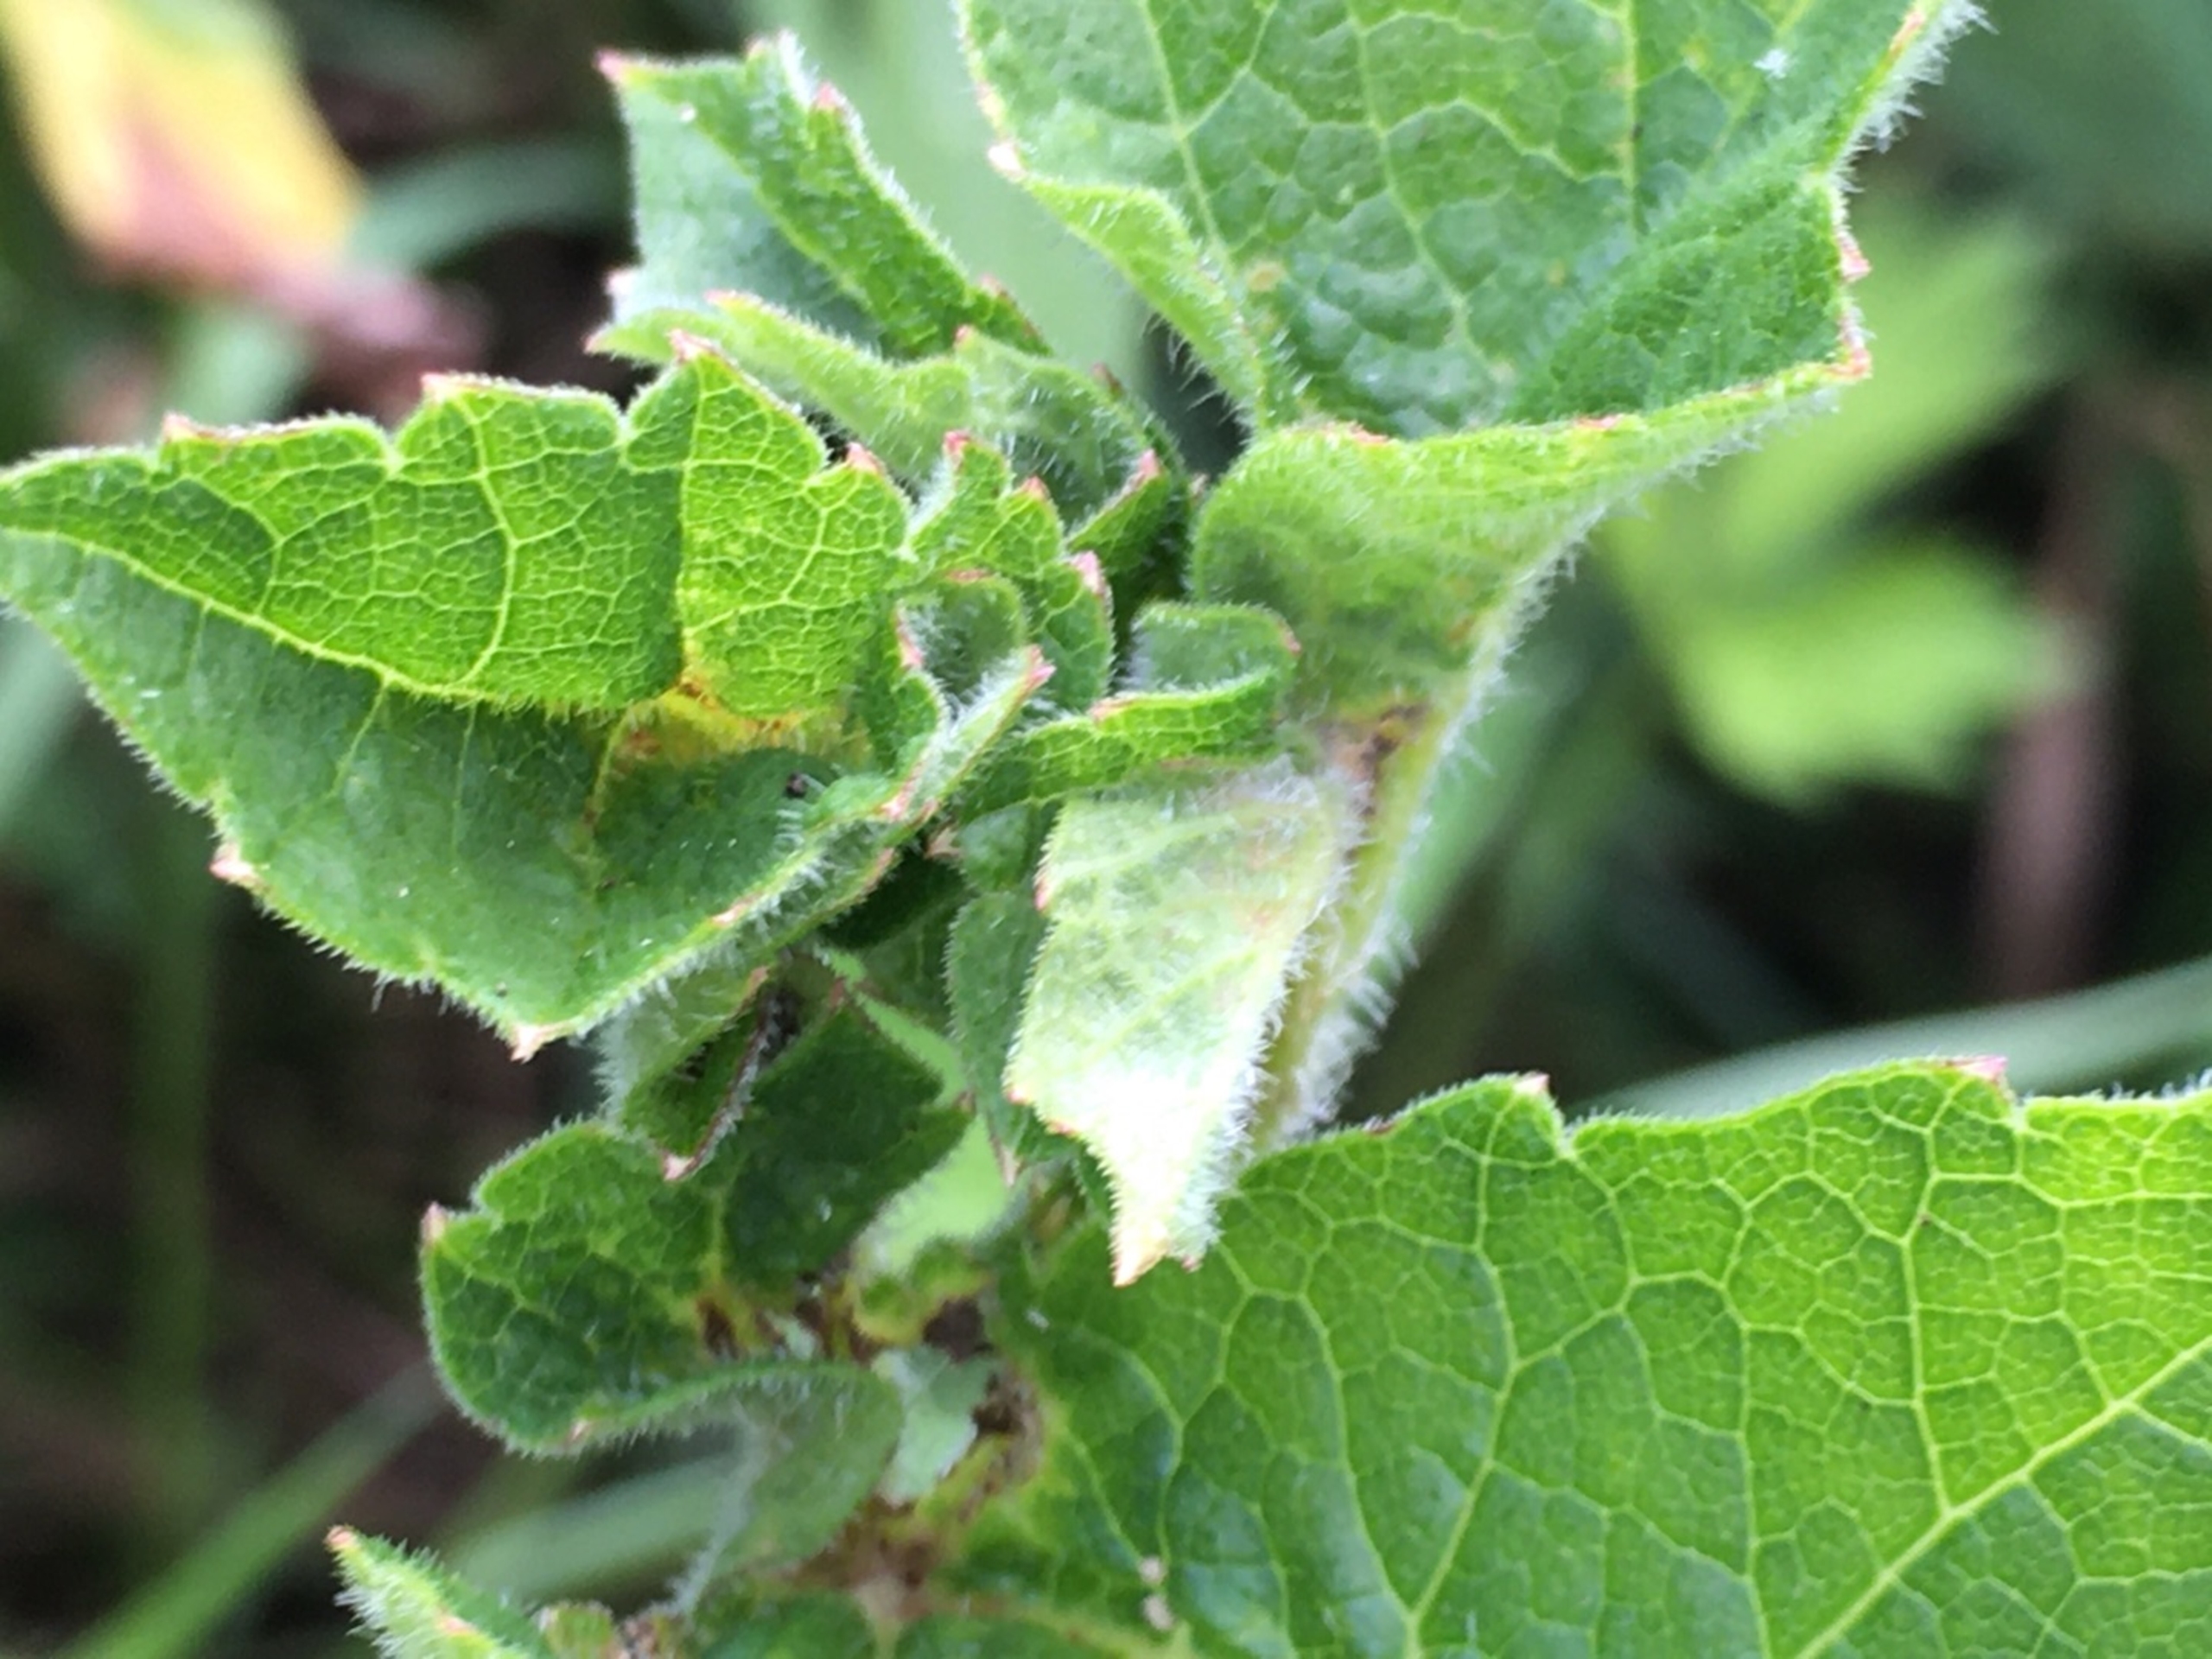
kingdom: Animalia
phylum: Arthropoda
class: Insecta
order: Diptera
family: Cecidomyiidae
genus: Macrolabis
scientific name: Macrolabis heraclei
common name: Bjørneklobladgalmyg
